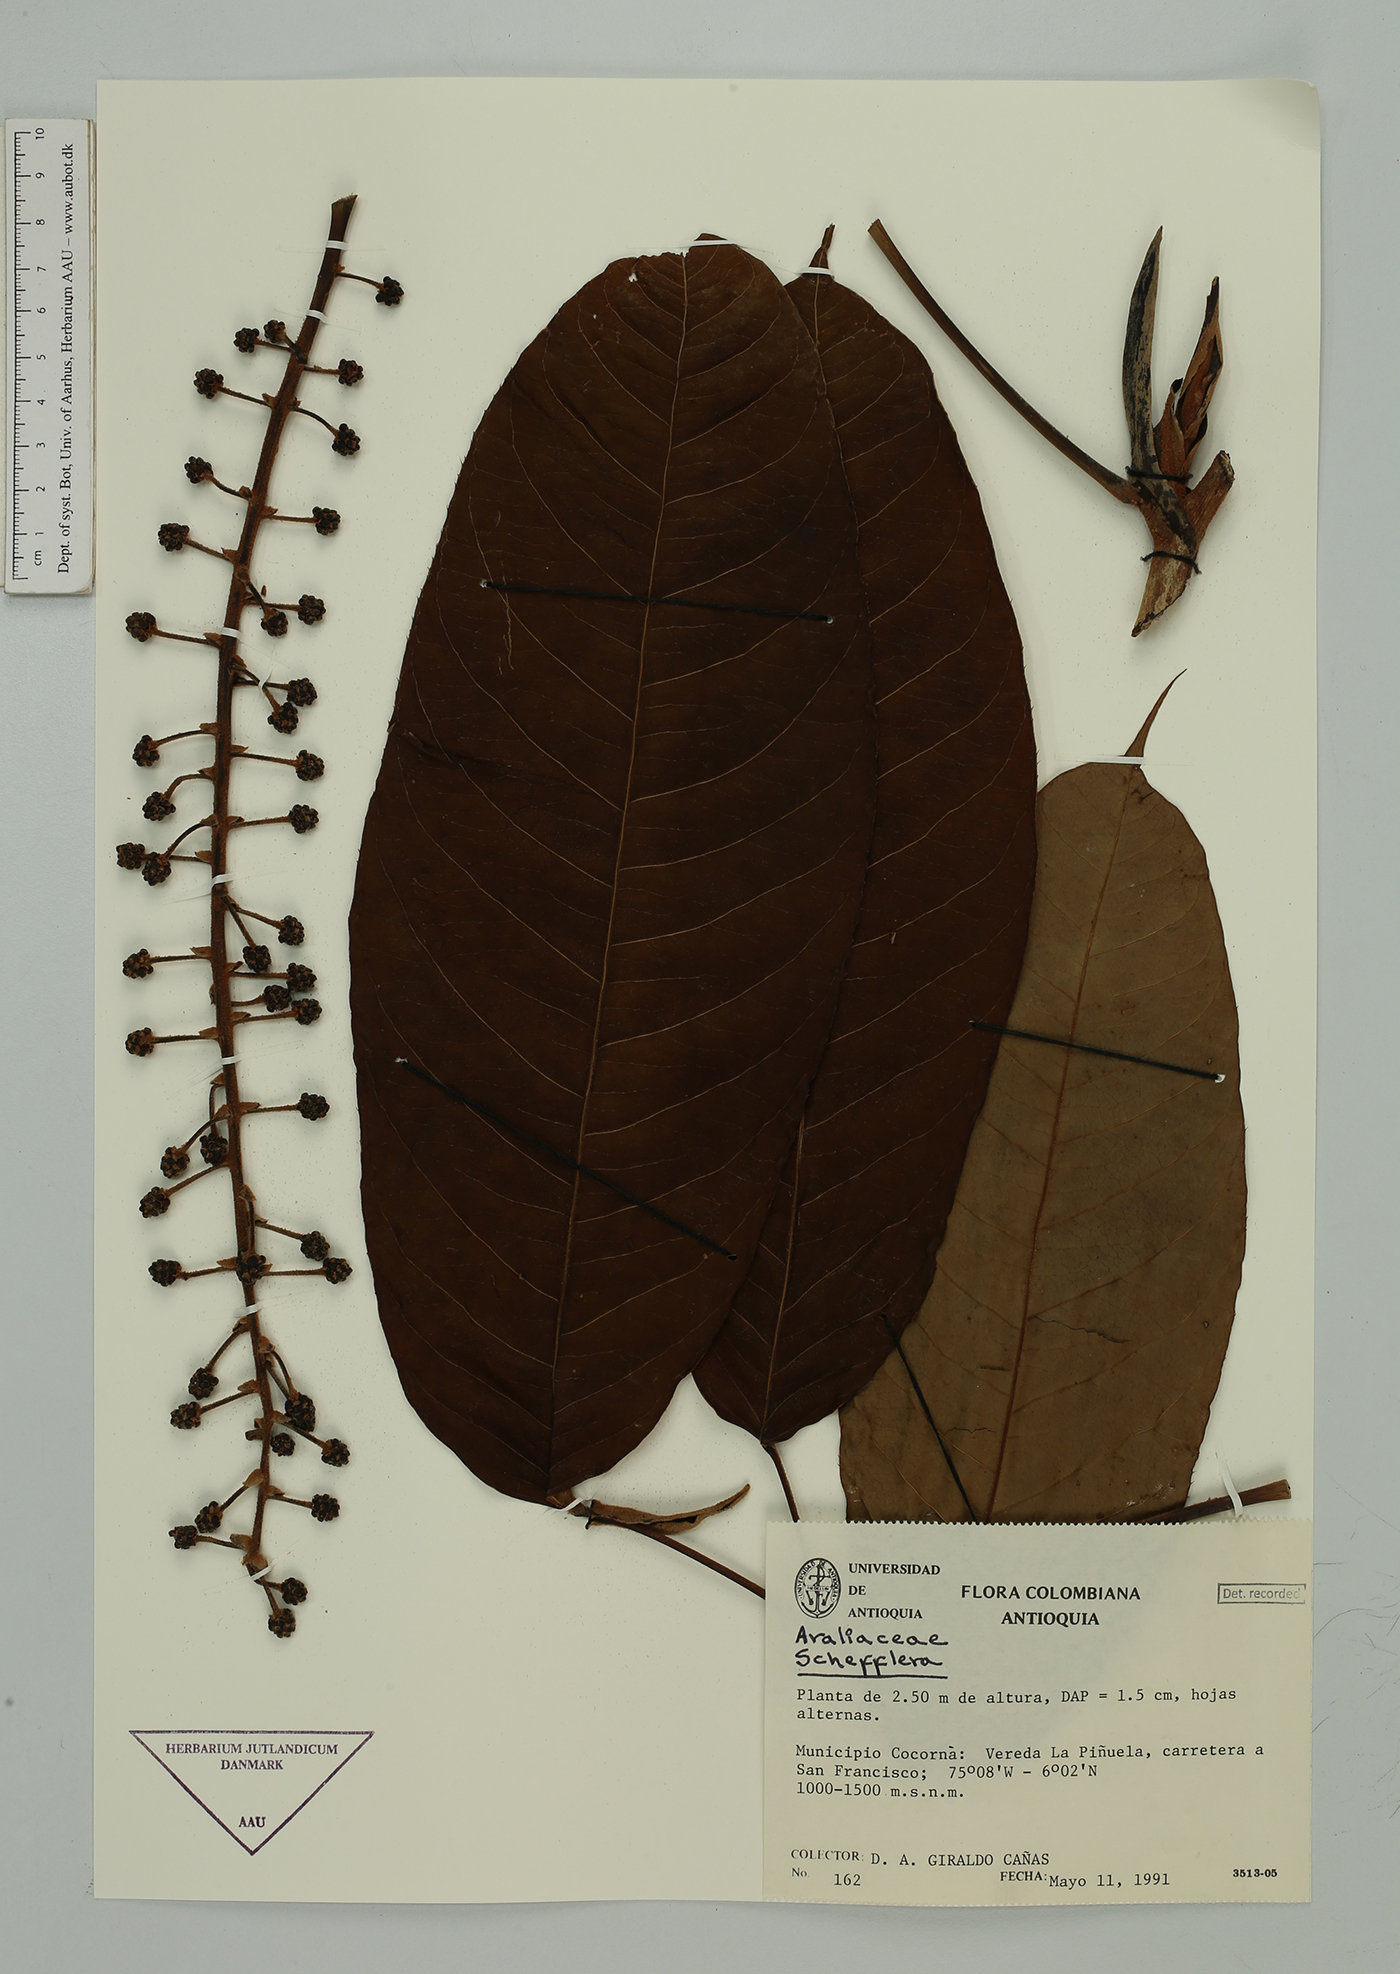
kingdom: Plantae
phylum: Tracheophyta
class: Magnoliopsida
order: Apiales
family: Araliaceae
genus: Sciodaphyllum
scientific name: Sciodaphyllum
